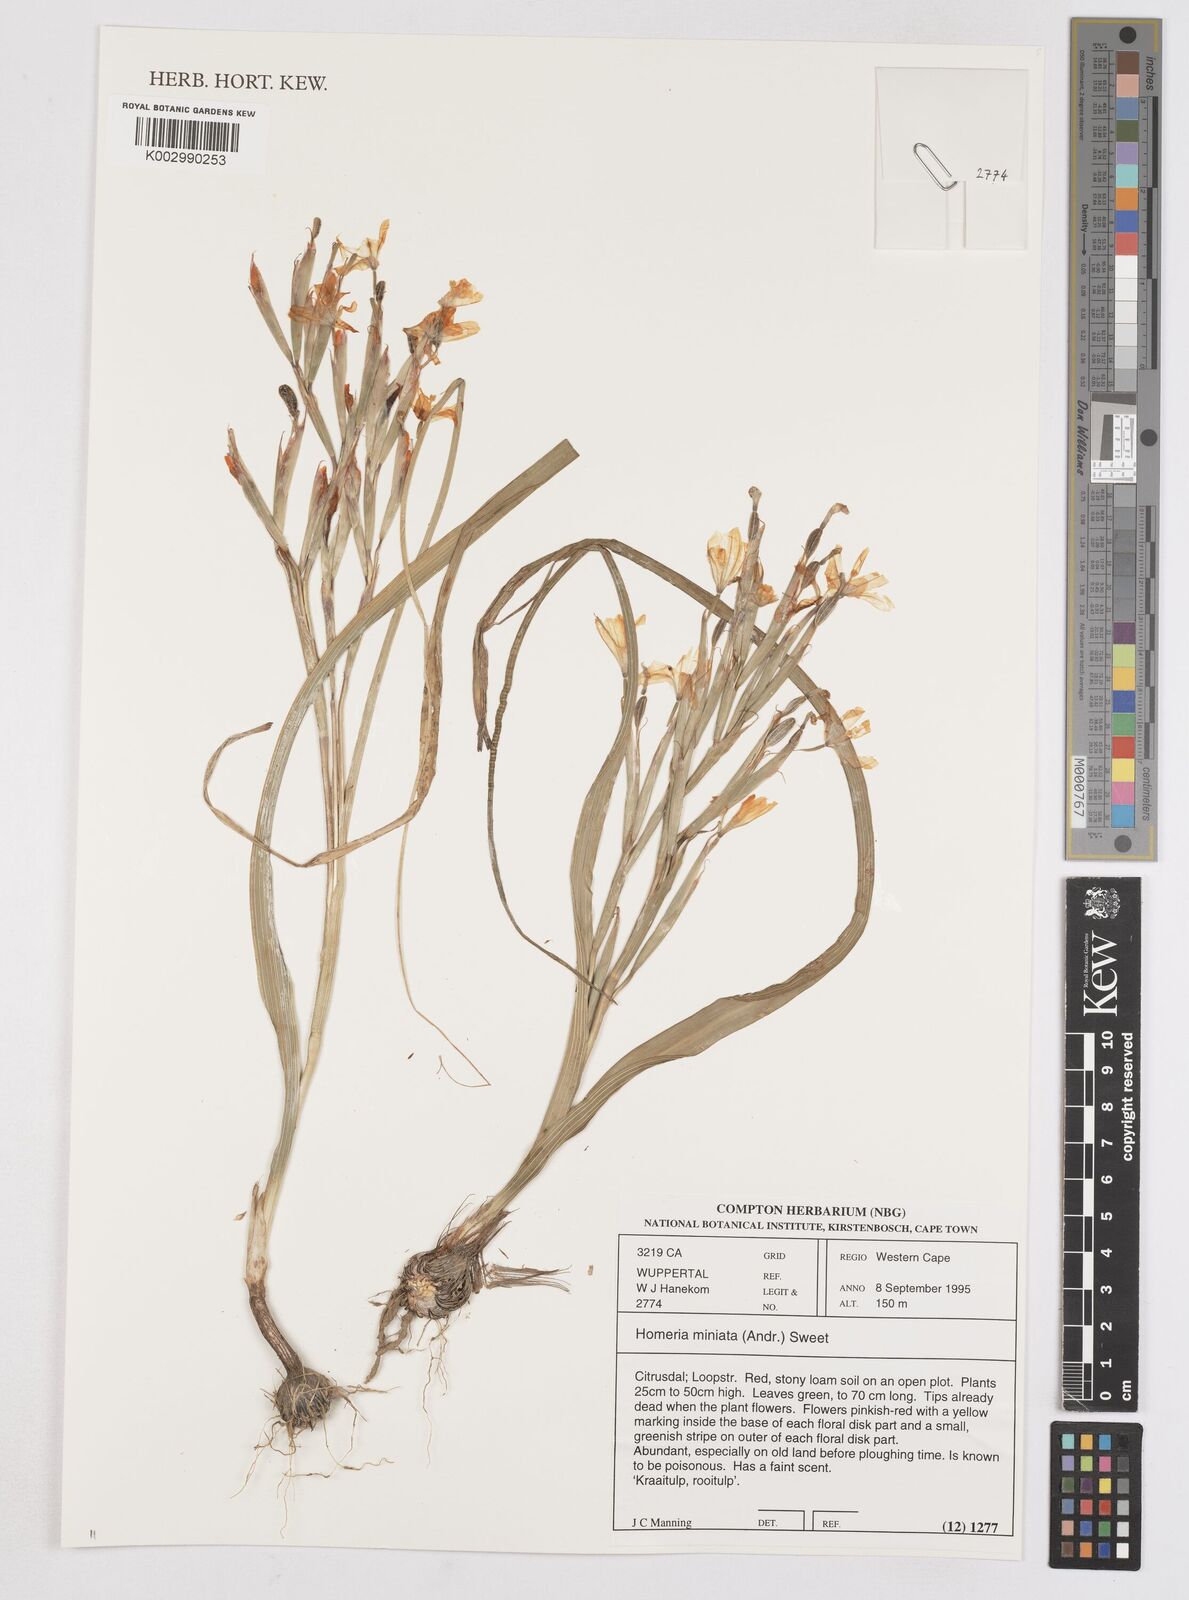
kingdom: Plantae
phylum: Tracheophyta
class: Liliopsida
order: Asparagales
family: Iridaceae
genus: Moraea
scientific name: Moraea miniata
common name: Two-leaf cape-tulip
